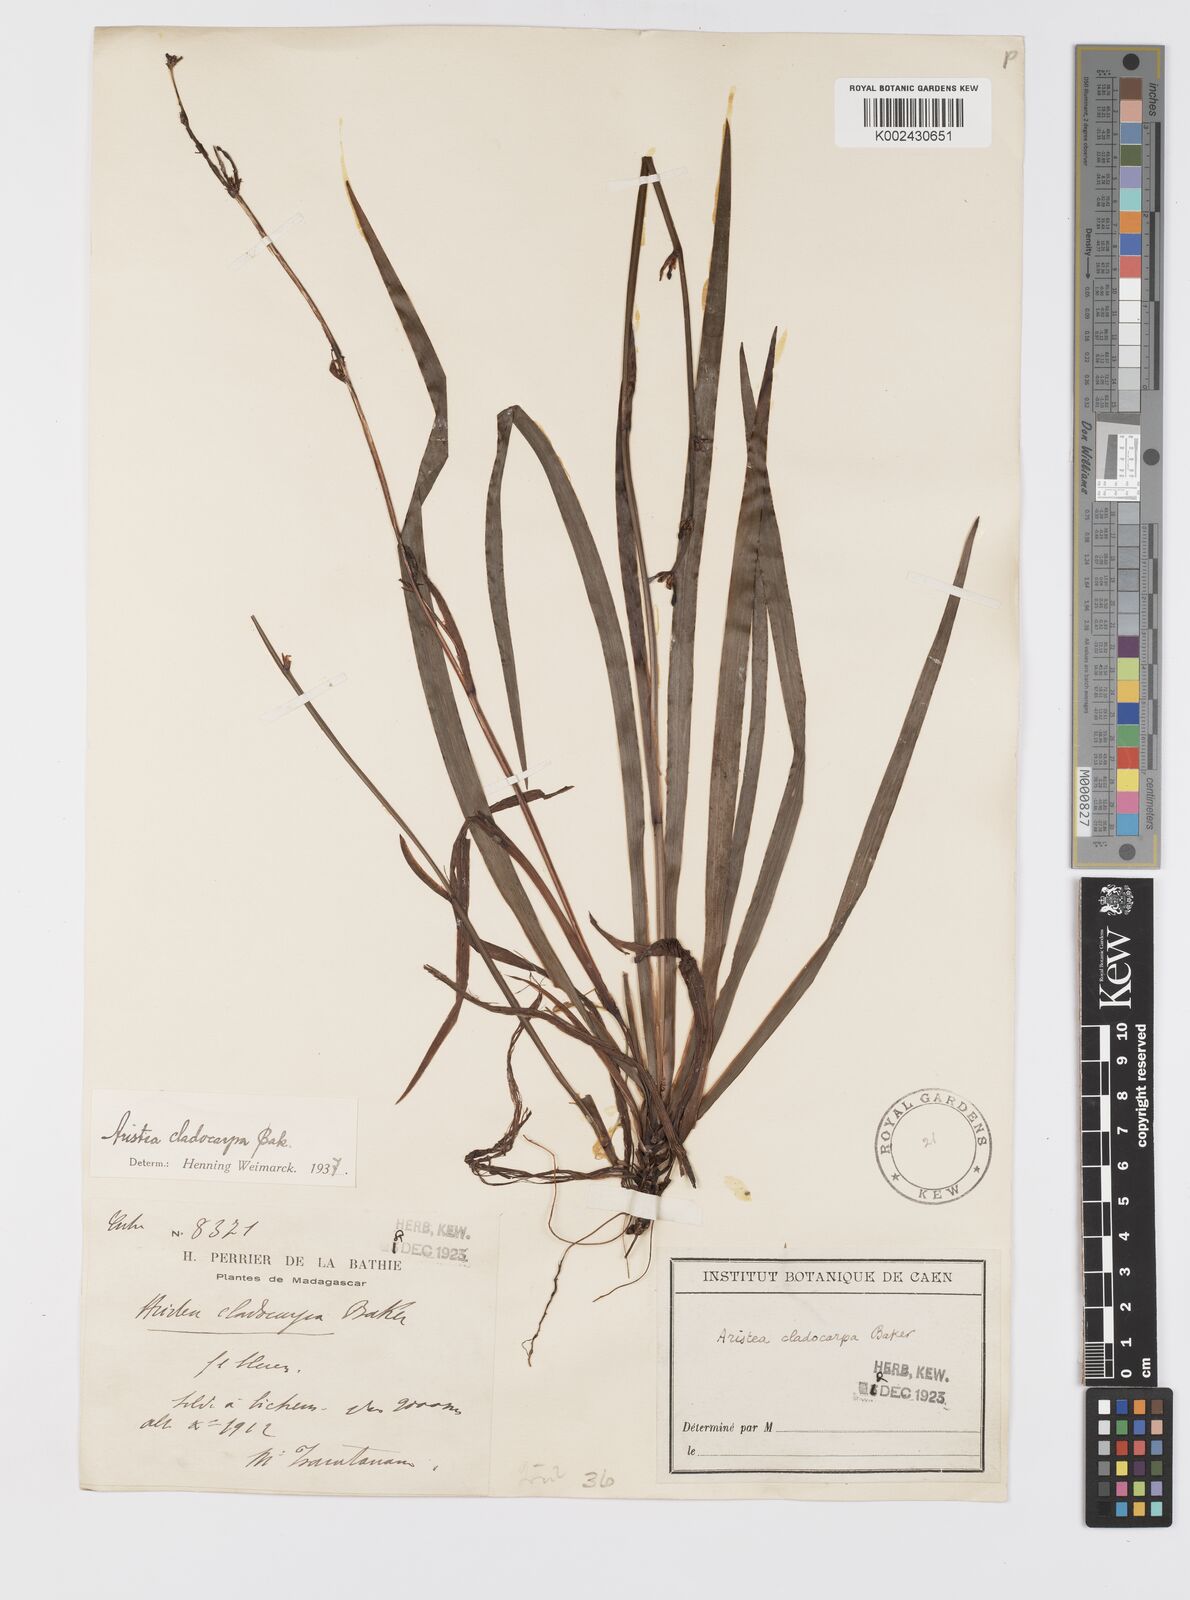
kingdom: Plantae
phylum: Tracheophyta
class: Liliopsida
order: Asparagales
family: Iridaceae
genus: Aristea
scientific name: Aristea cladocarpa
